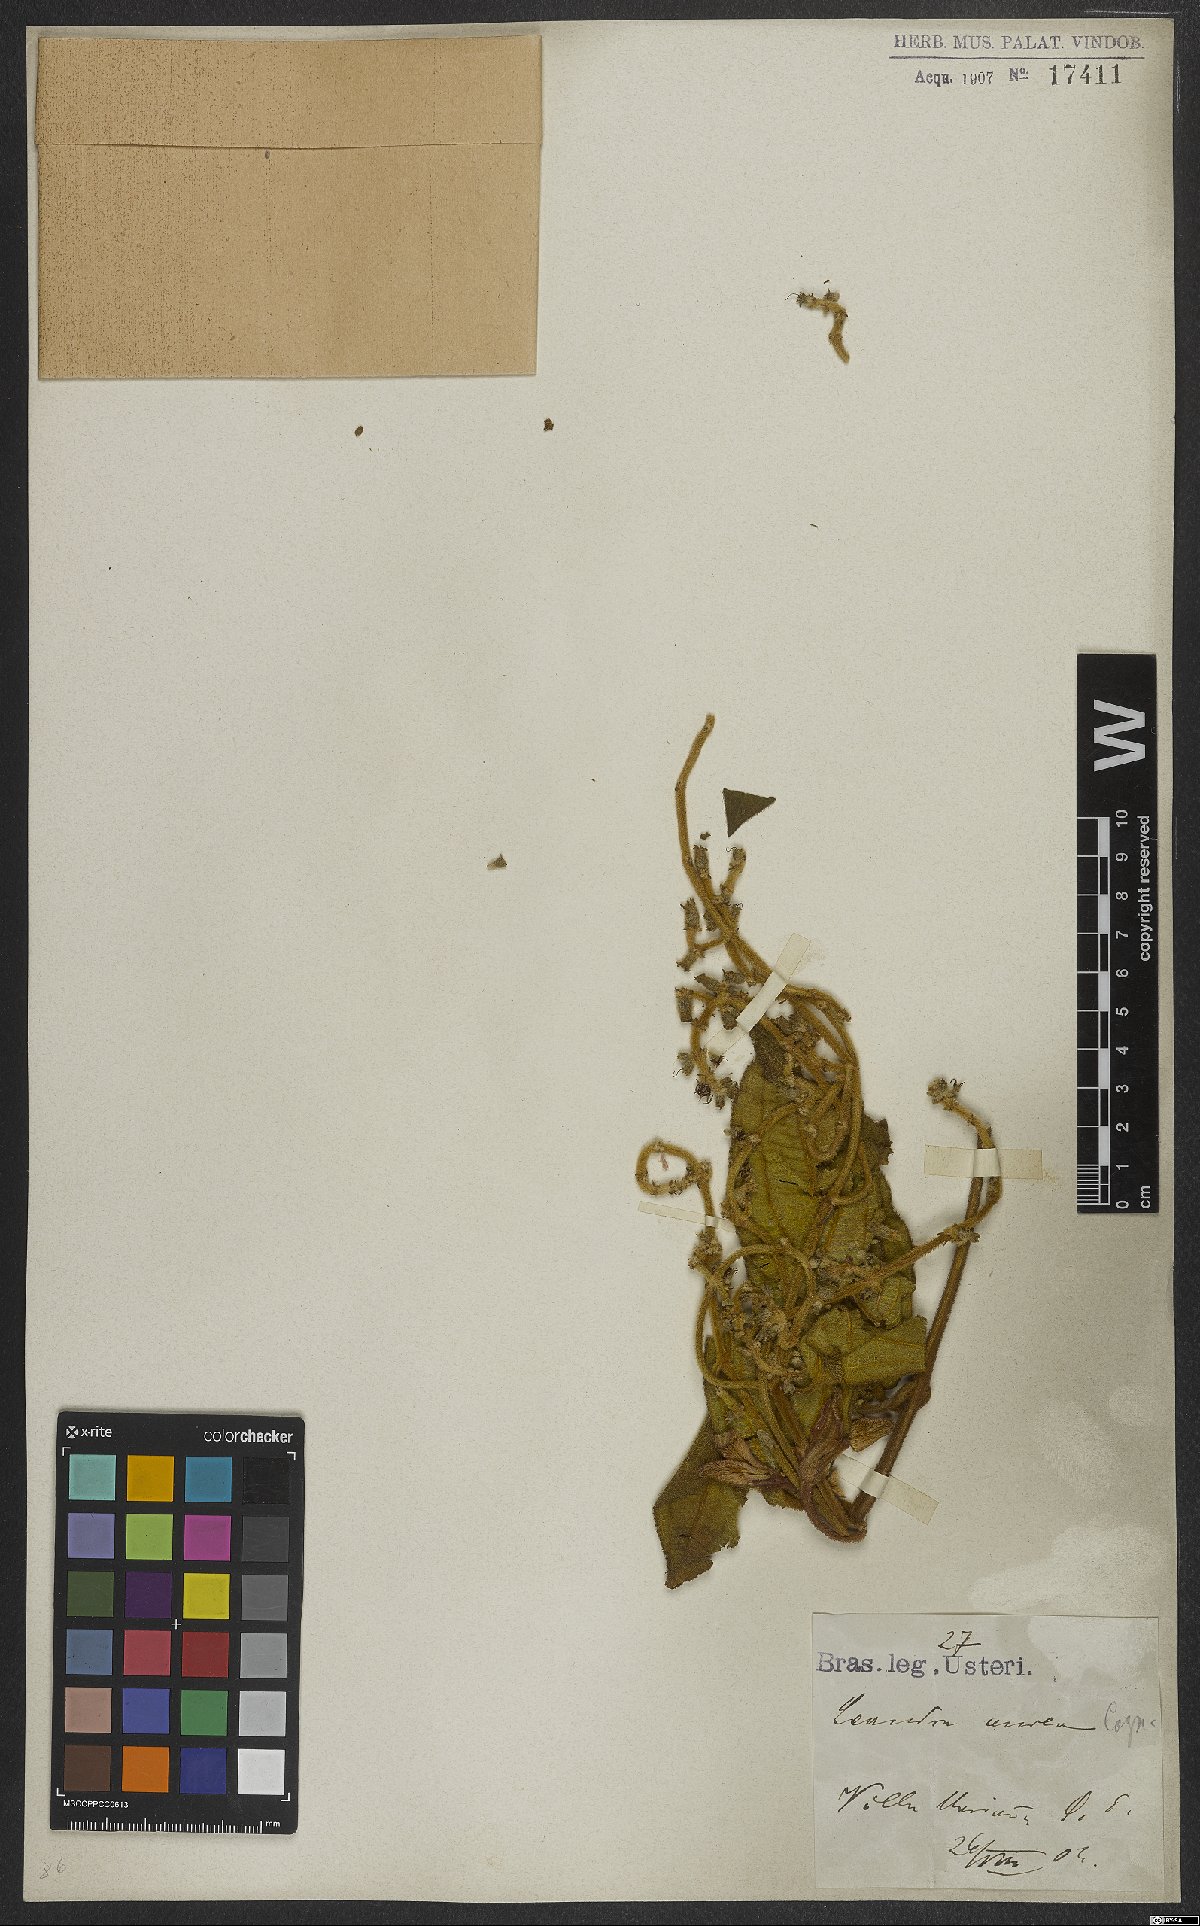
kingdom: Plantae
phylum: Tracheophyta
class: Magnoliopsida
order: Myrtales
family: Melastomataceae
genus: Miconia
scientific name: Miconia auricoma
